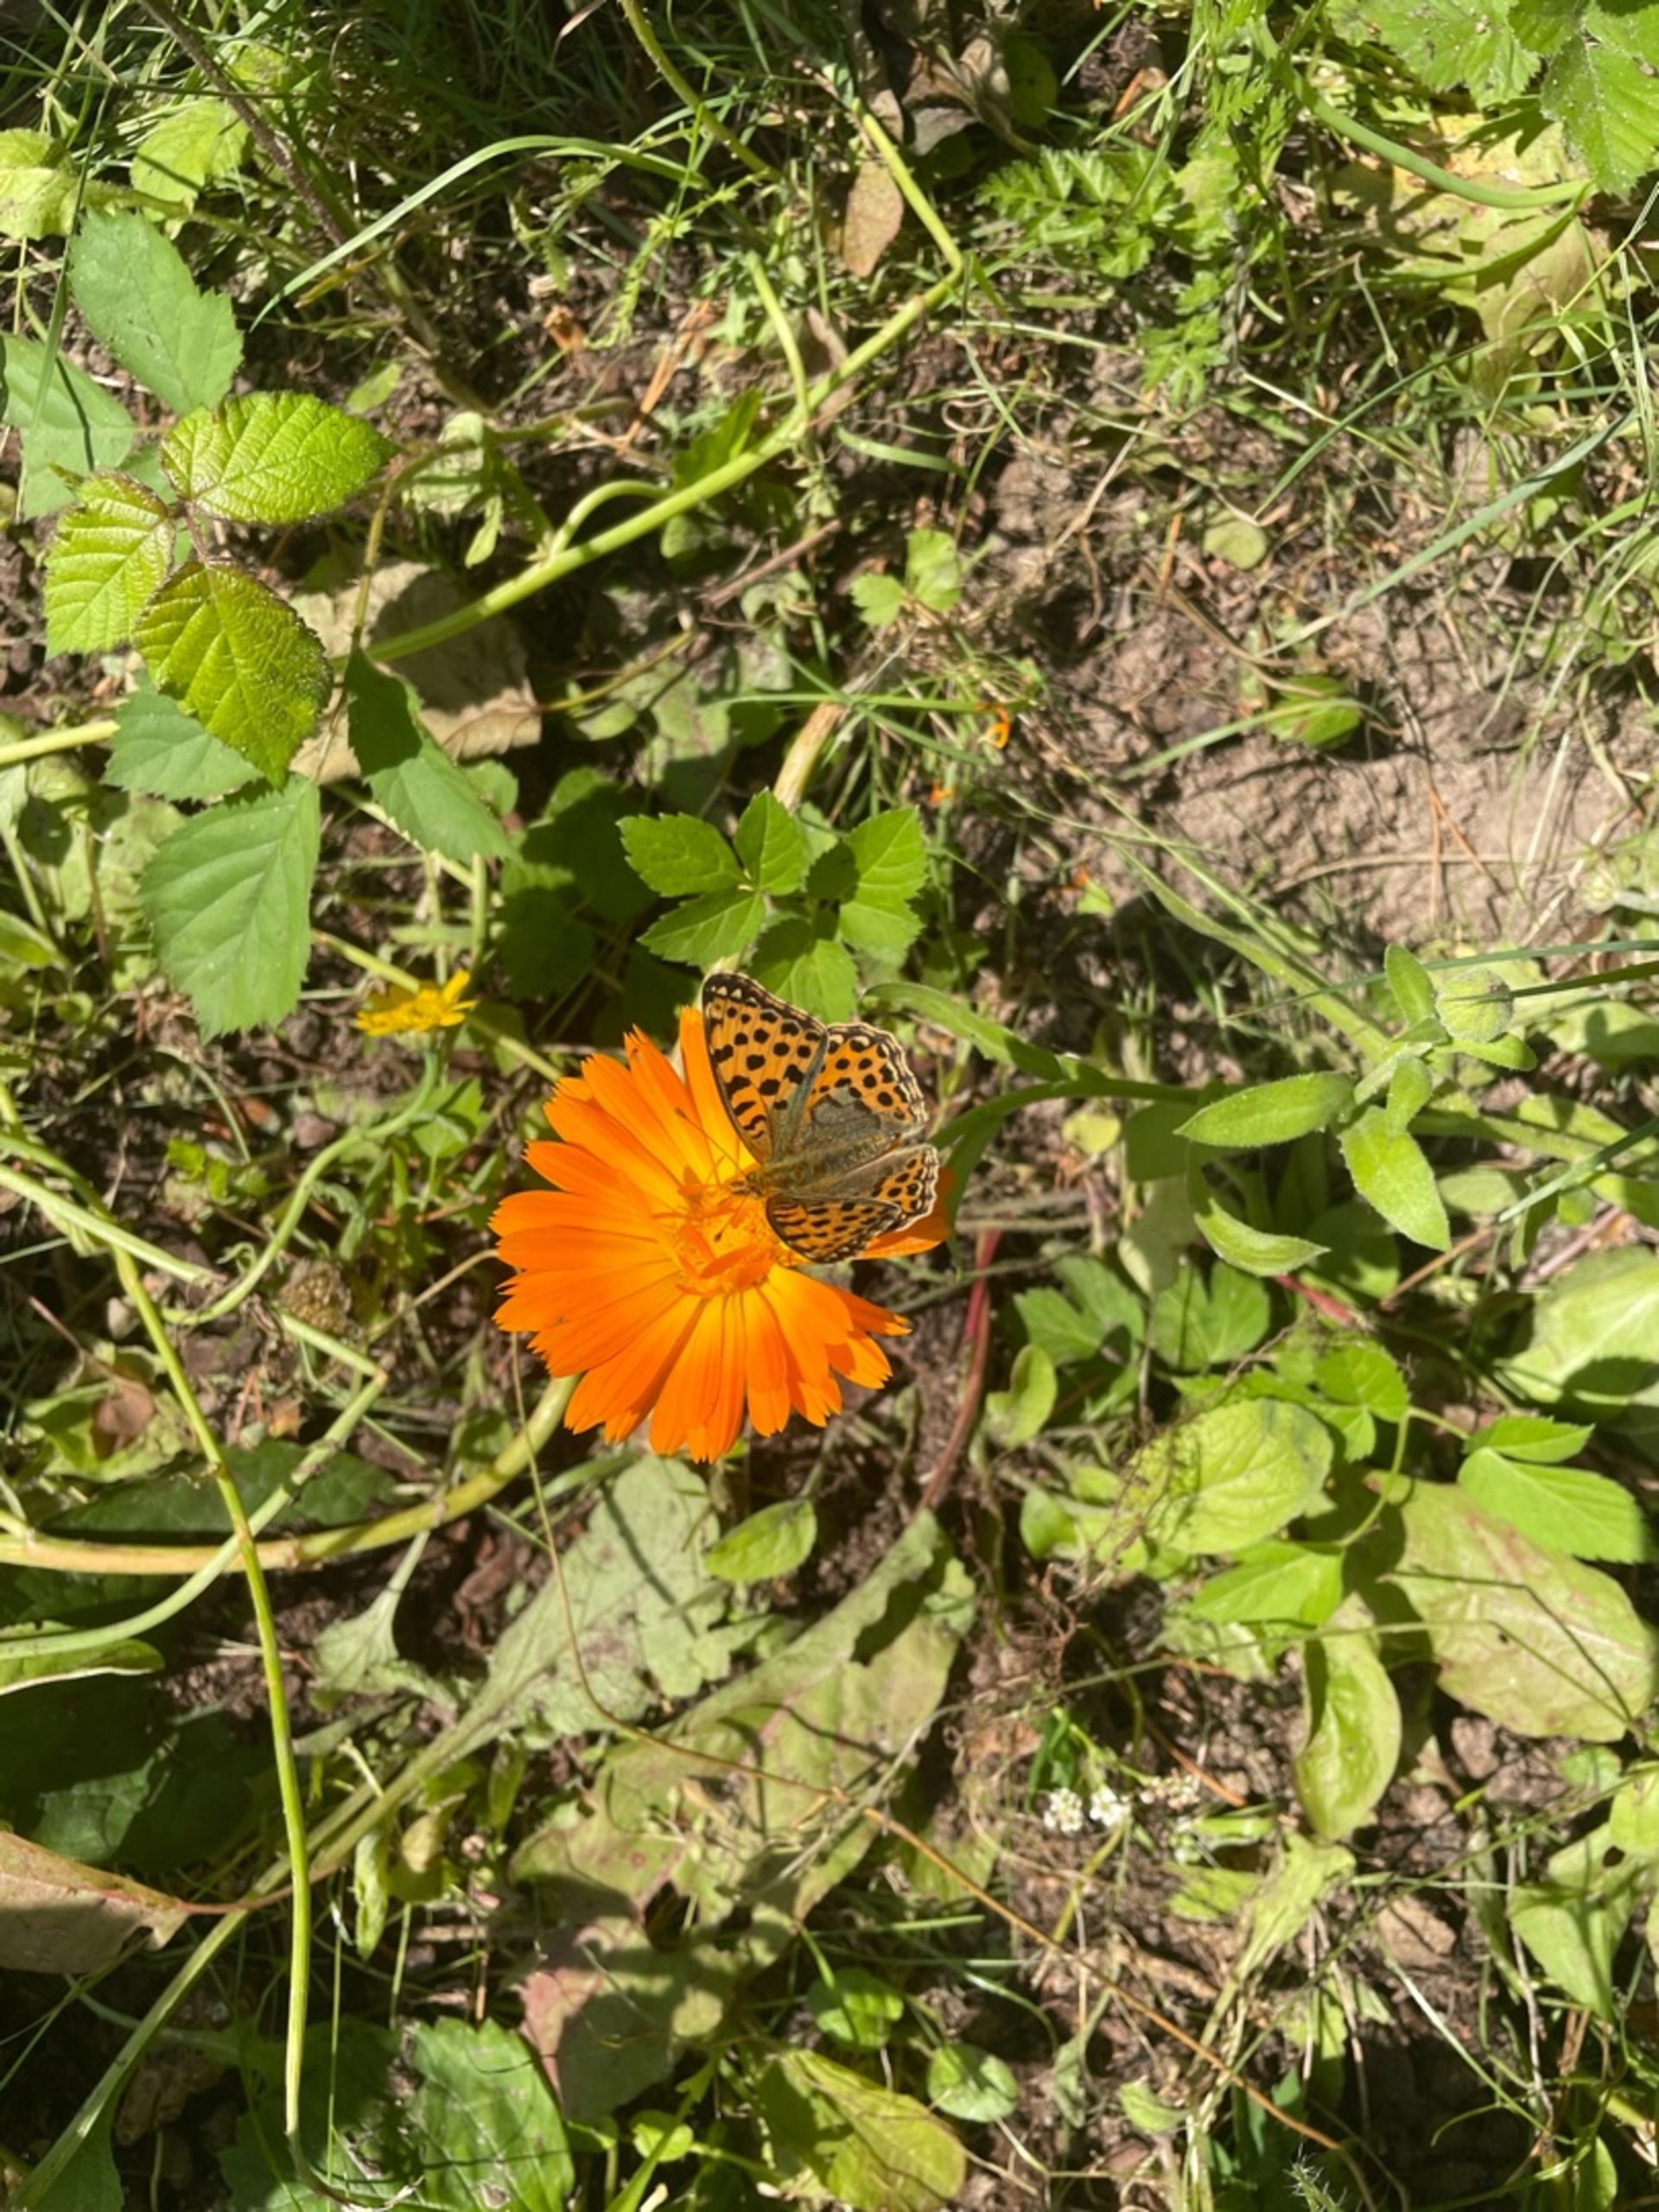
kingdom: Animalia
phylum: Arthropoda
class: Insecta
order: Lepidoptera
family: Nymphalidae
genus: Issoria
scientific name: Issoria lathonia
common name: Storplettet perlemorsommerfugl
